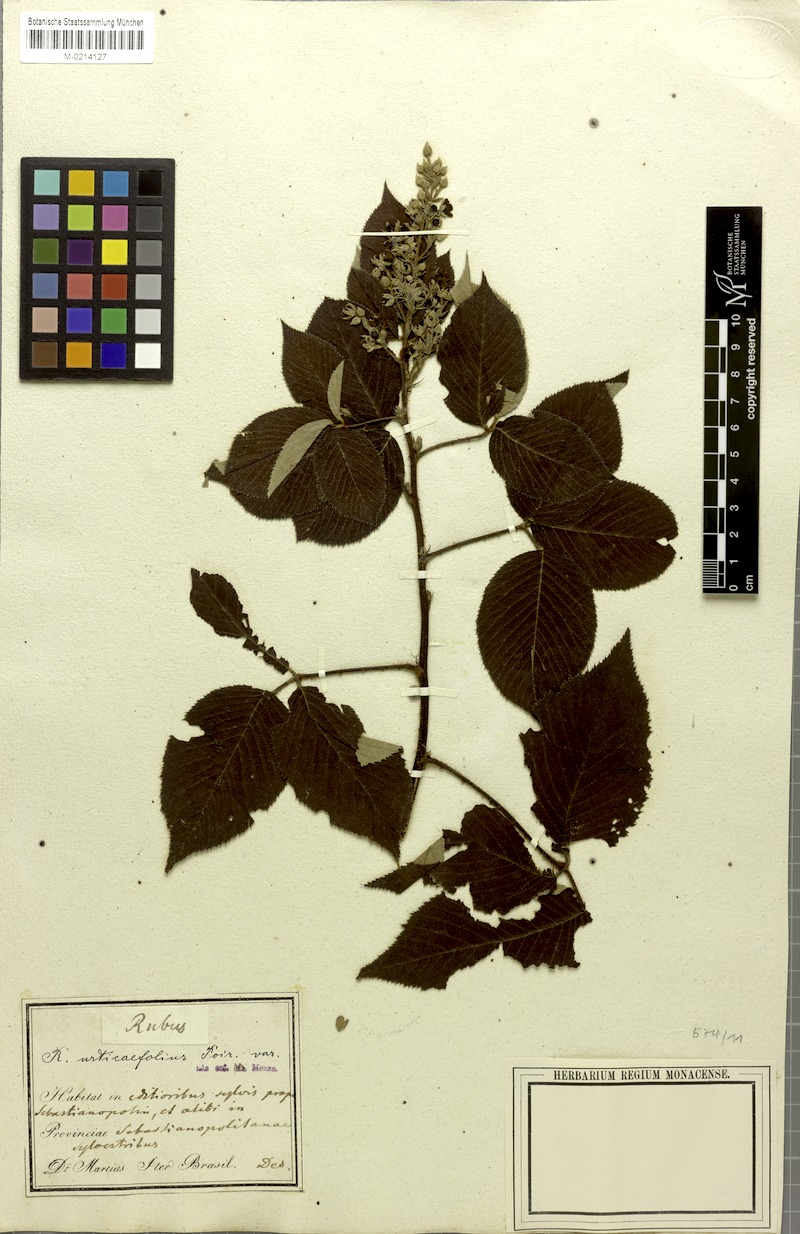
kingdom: Plantae
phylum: Tracheophyta
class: Magnoliopsida
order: Rosales
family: Rosaceae
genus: Rubus
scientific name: Rubus urticifolius
